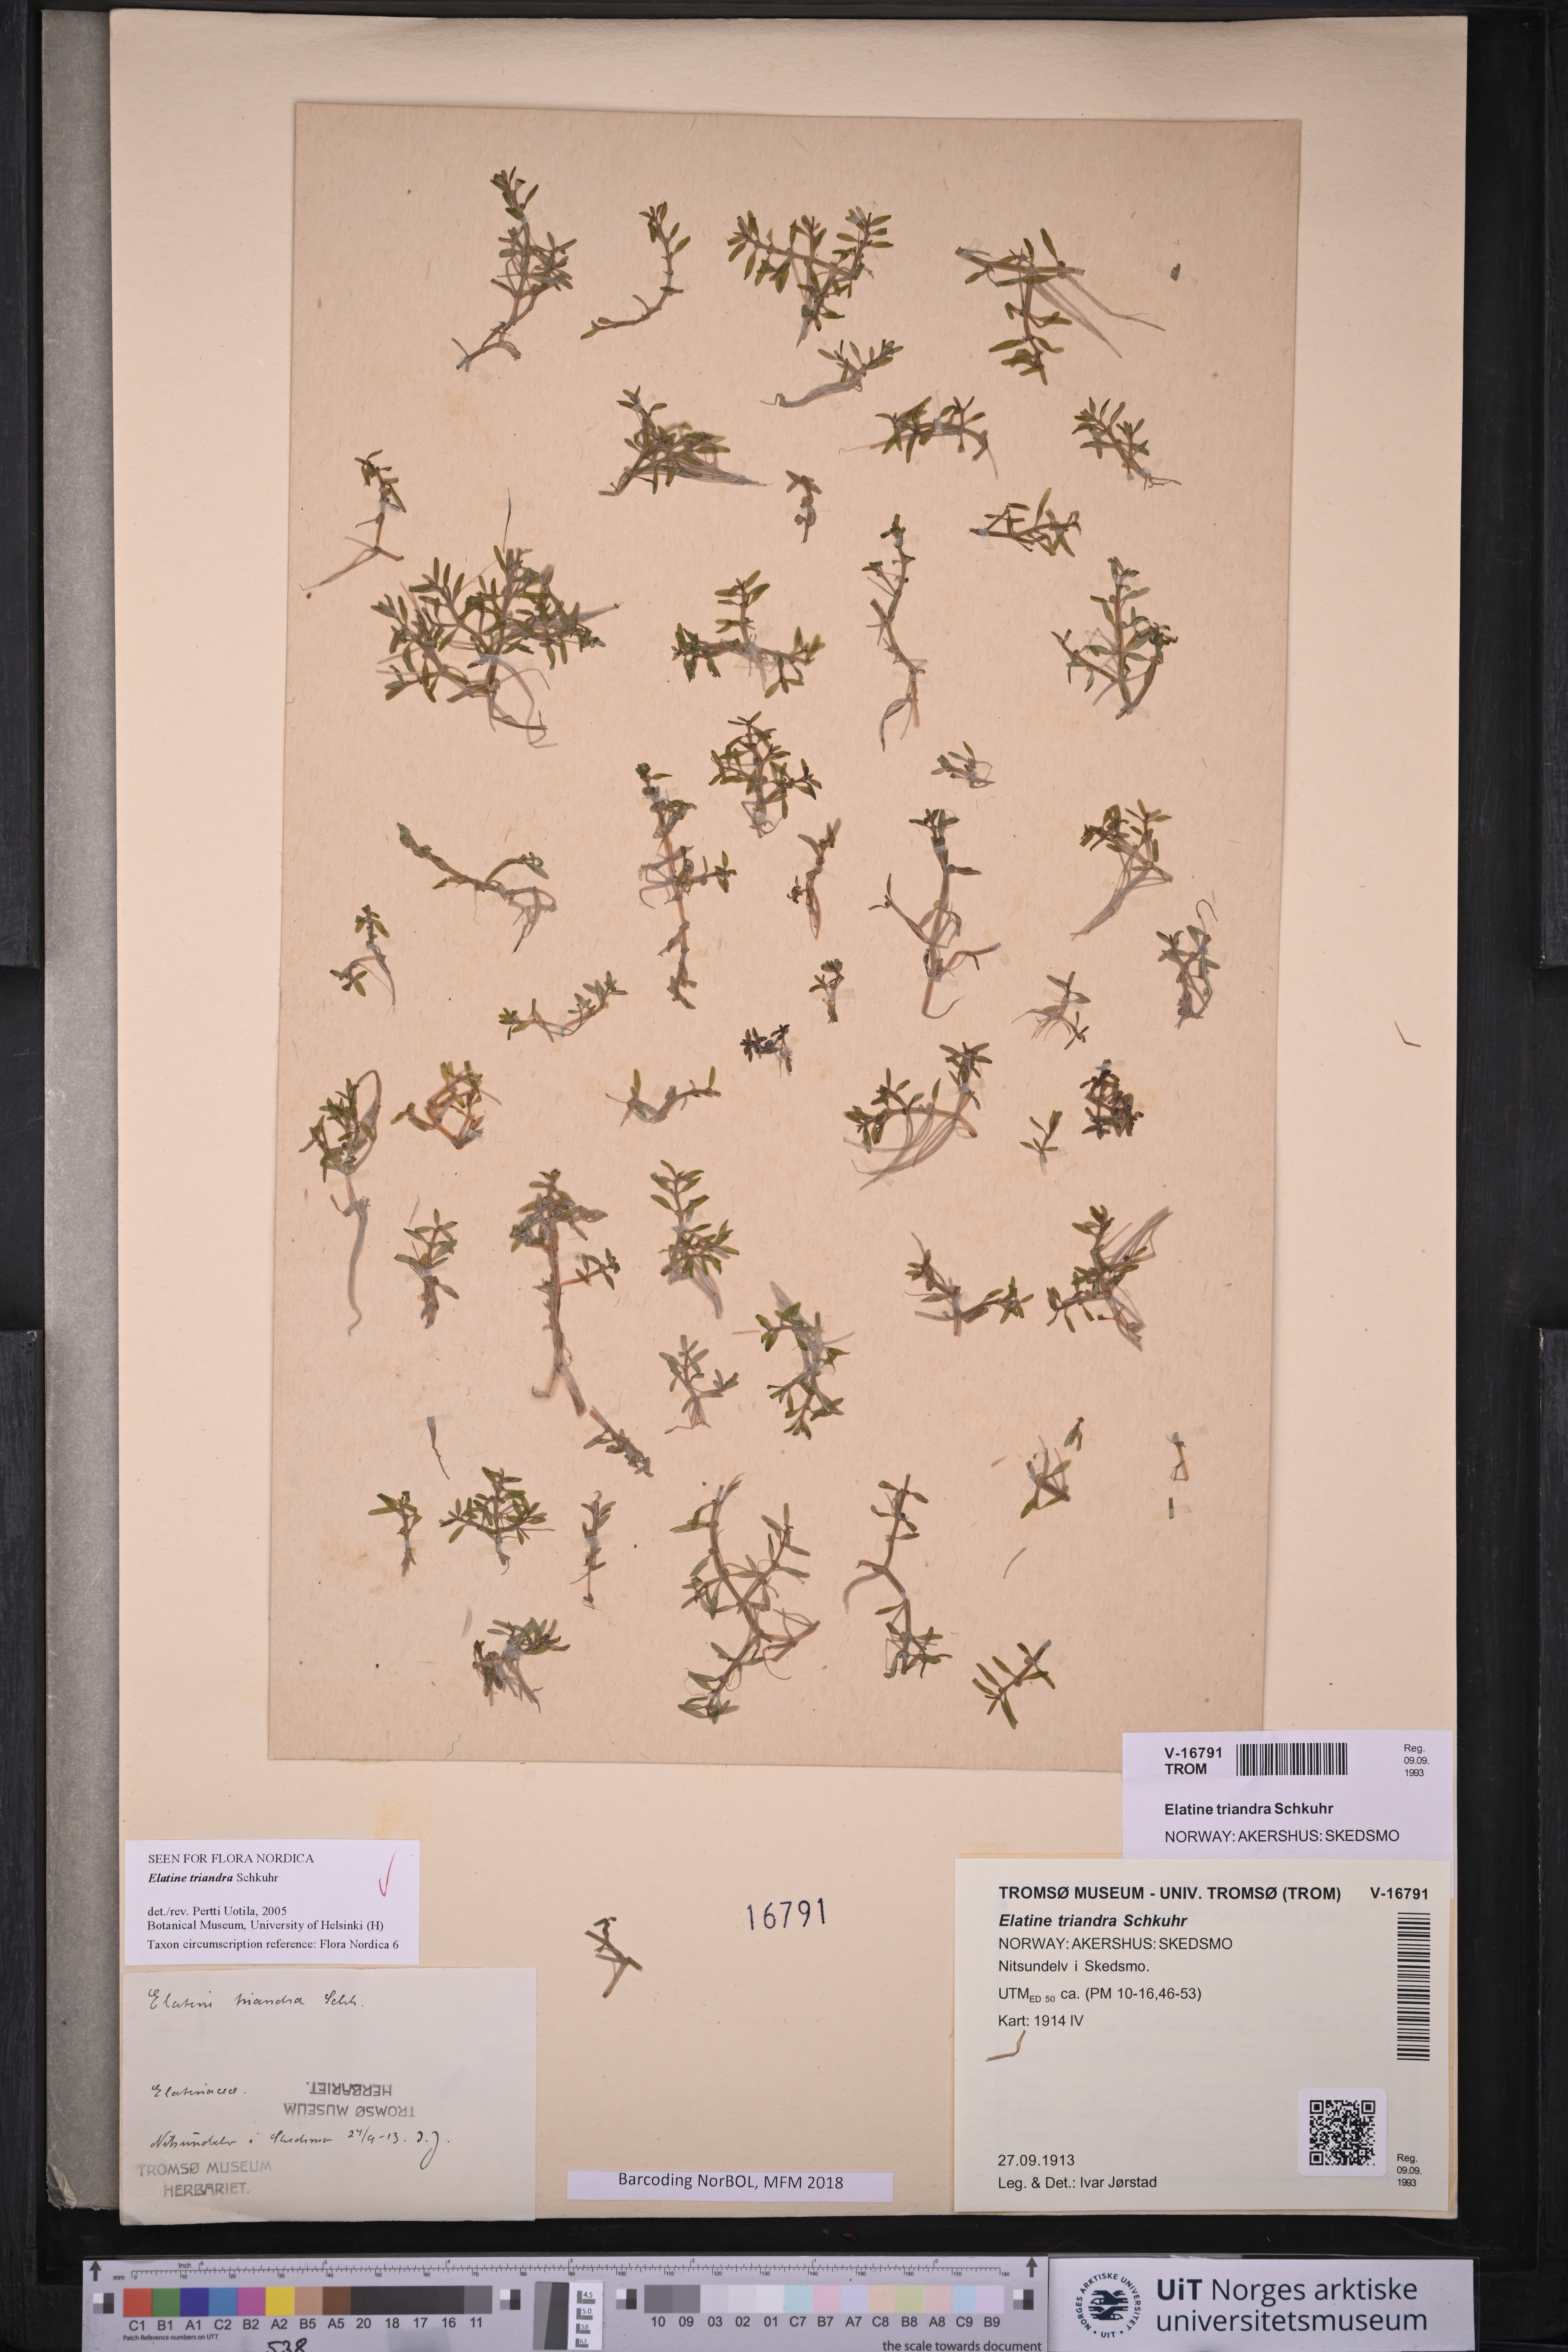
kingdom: Plantae
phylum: Tracheophyta
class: Magnoliopsida
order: Malpighiales
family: Elatinaceae
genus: Elatine
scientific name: Elatine triandra
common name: Three-stamened waterwort
